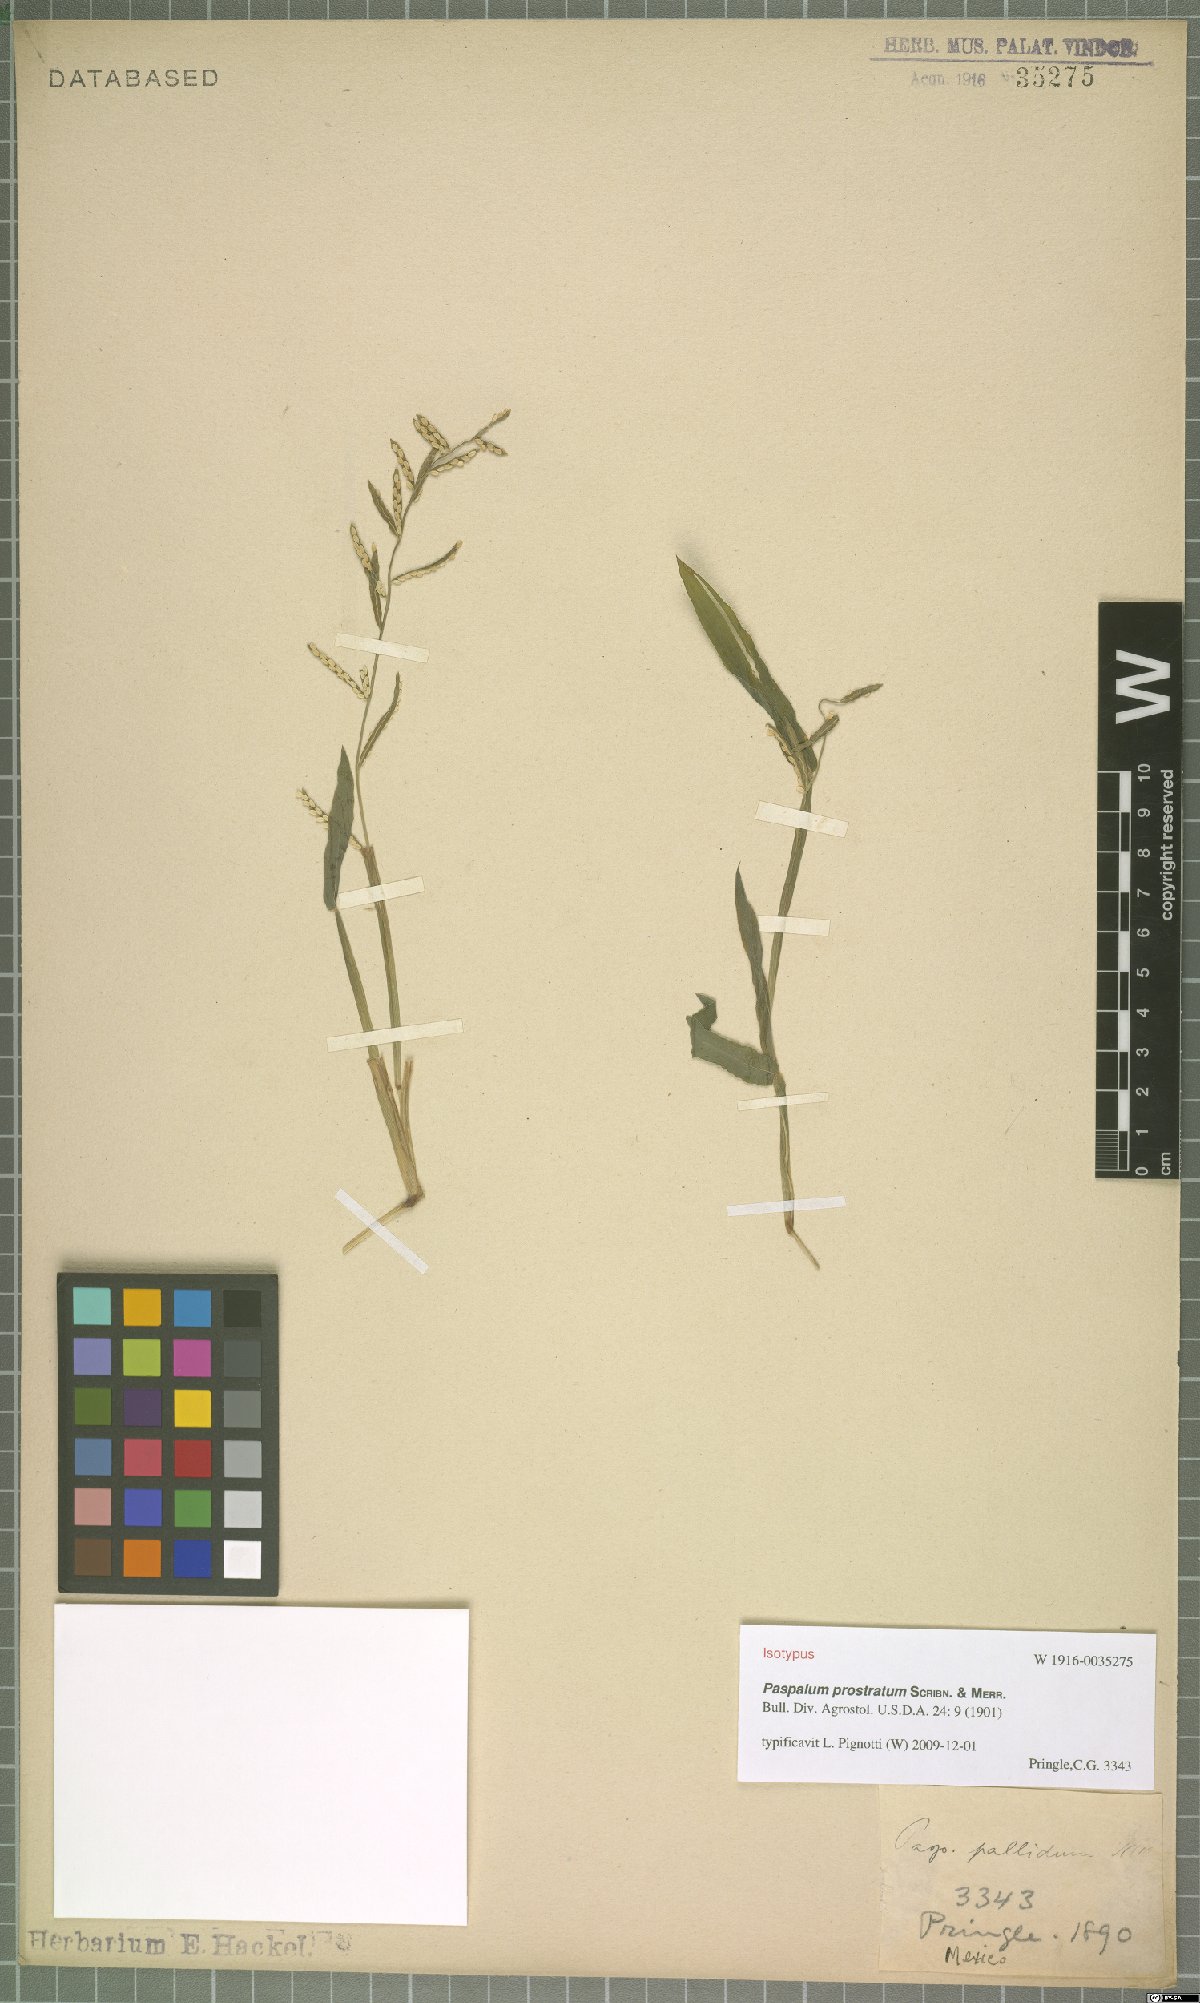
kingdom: Plantae
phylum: Tracheophyta
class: Liliopsida
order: Poales
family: Poaceae
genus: Paspalum
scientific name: Paspalum prostratum
